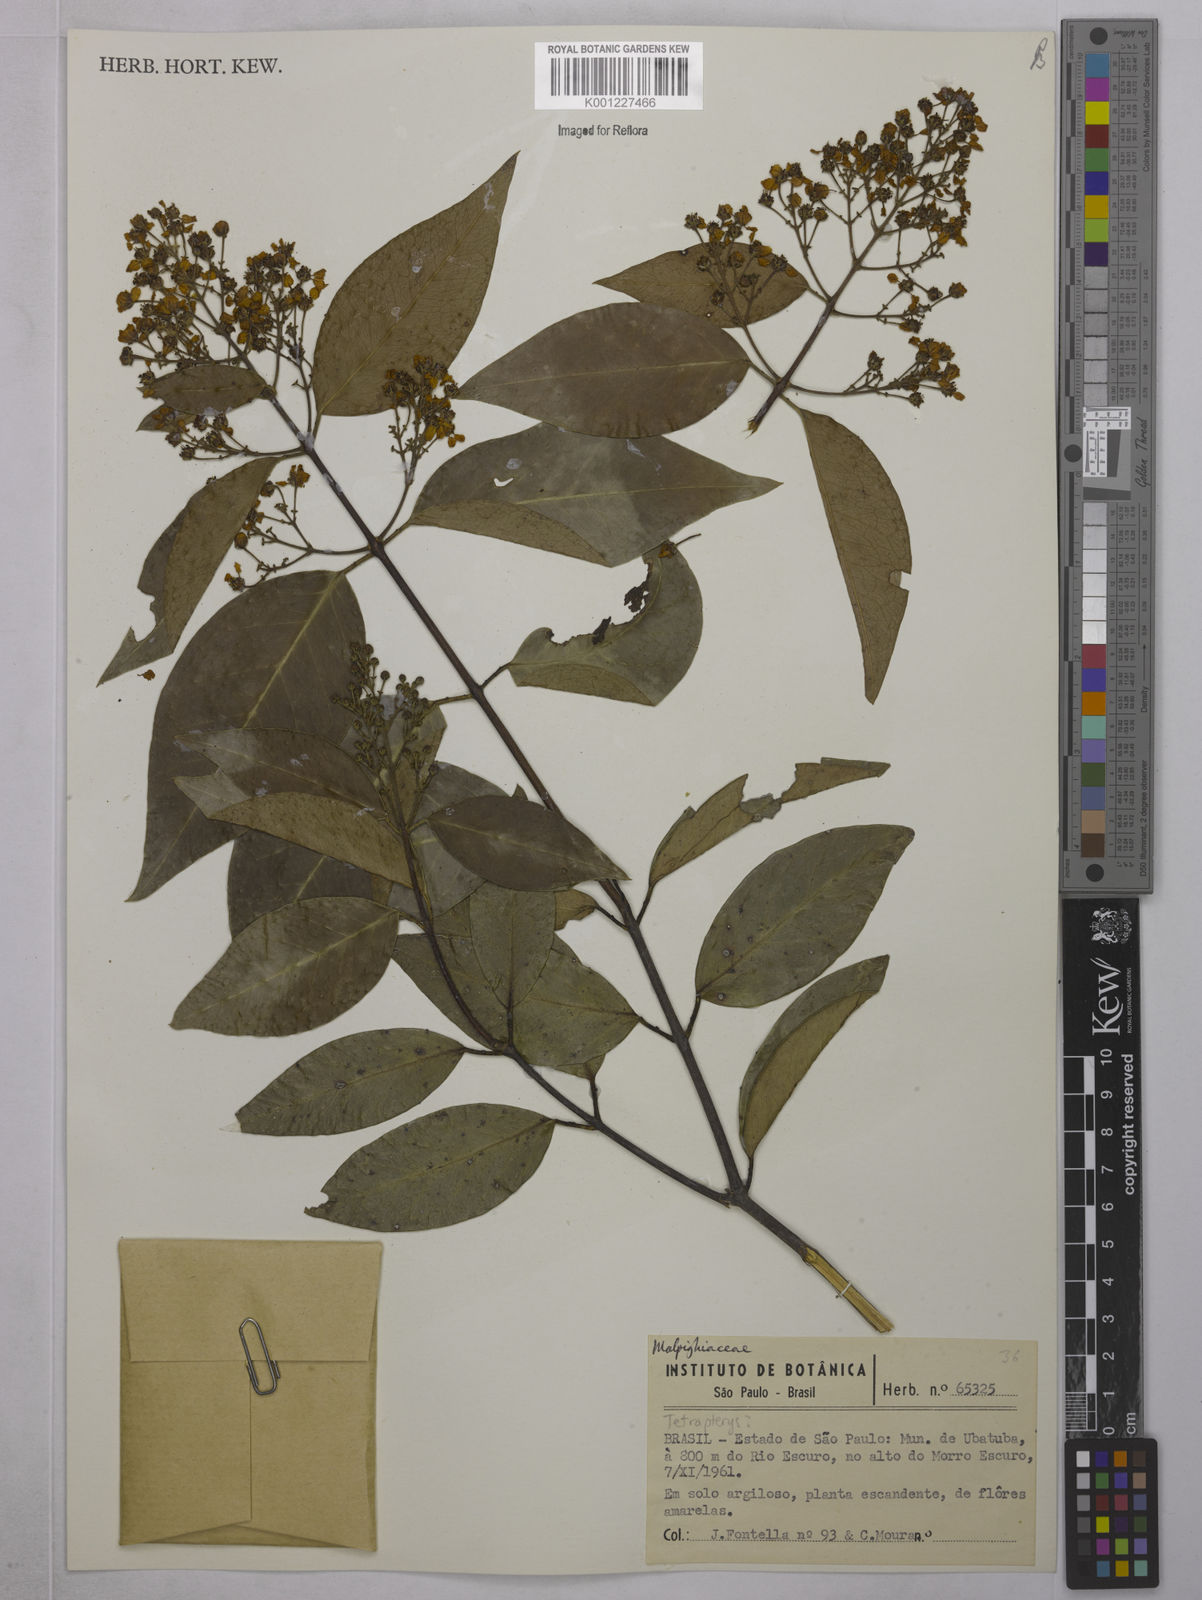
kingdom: Plantae
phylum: Tracheophyta
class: Magnoliopsida
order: Malpighiales
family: Malpighiaceae
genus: Tetrapterys
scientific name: Tetrapterys
